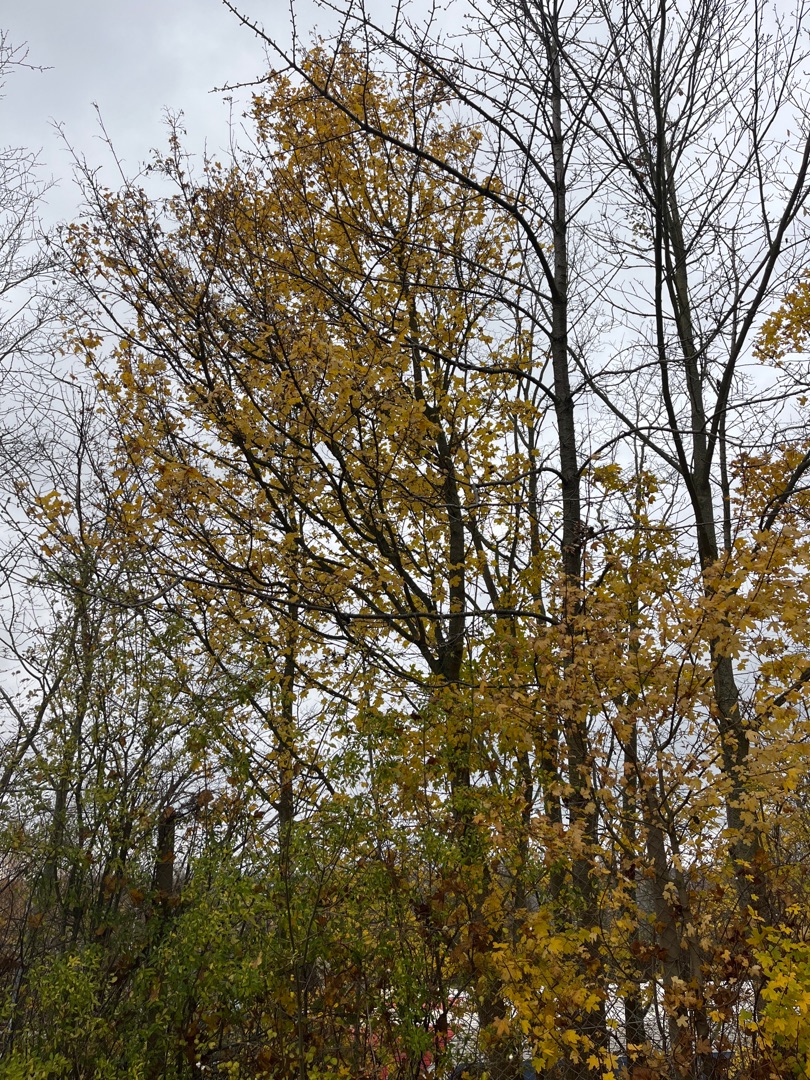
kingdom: Plantae
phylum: Tracheophyta
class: Magnoliopsida
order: Sapindales
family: Sapindaceae
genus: Acer
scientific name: Acer campestre
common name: Navr
